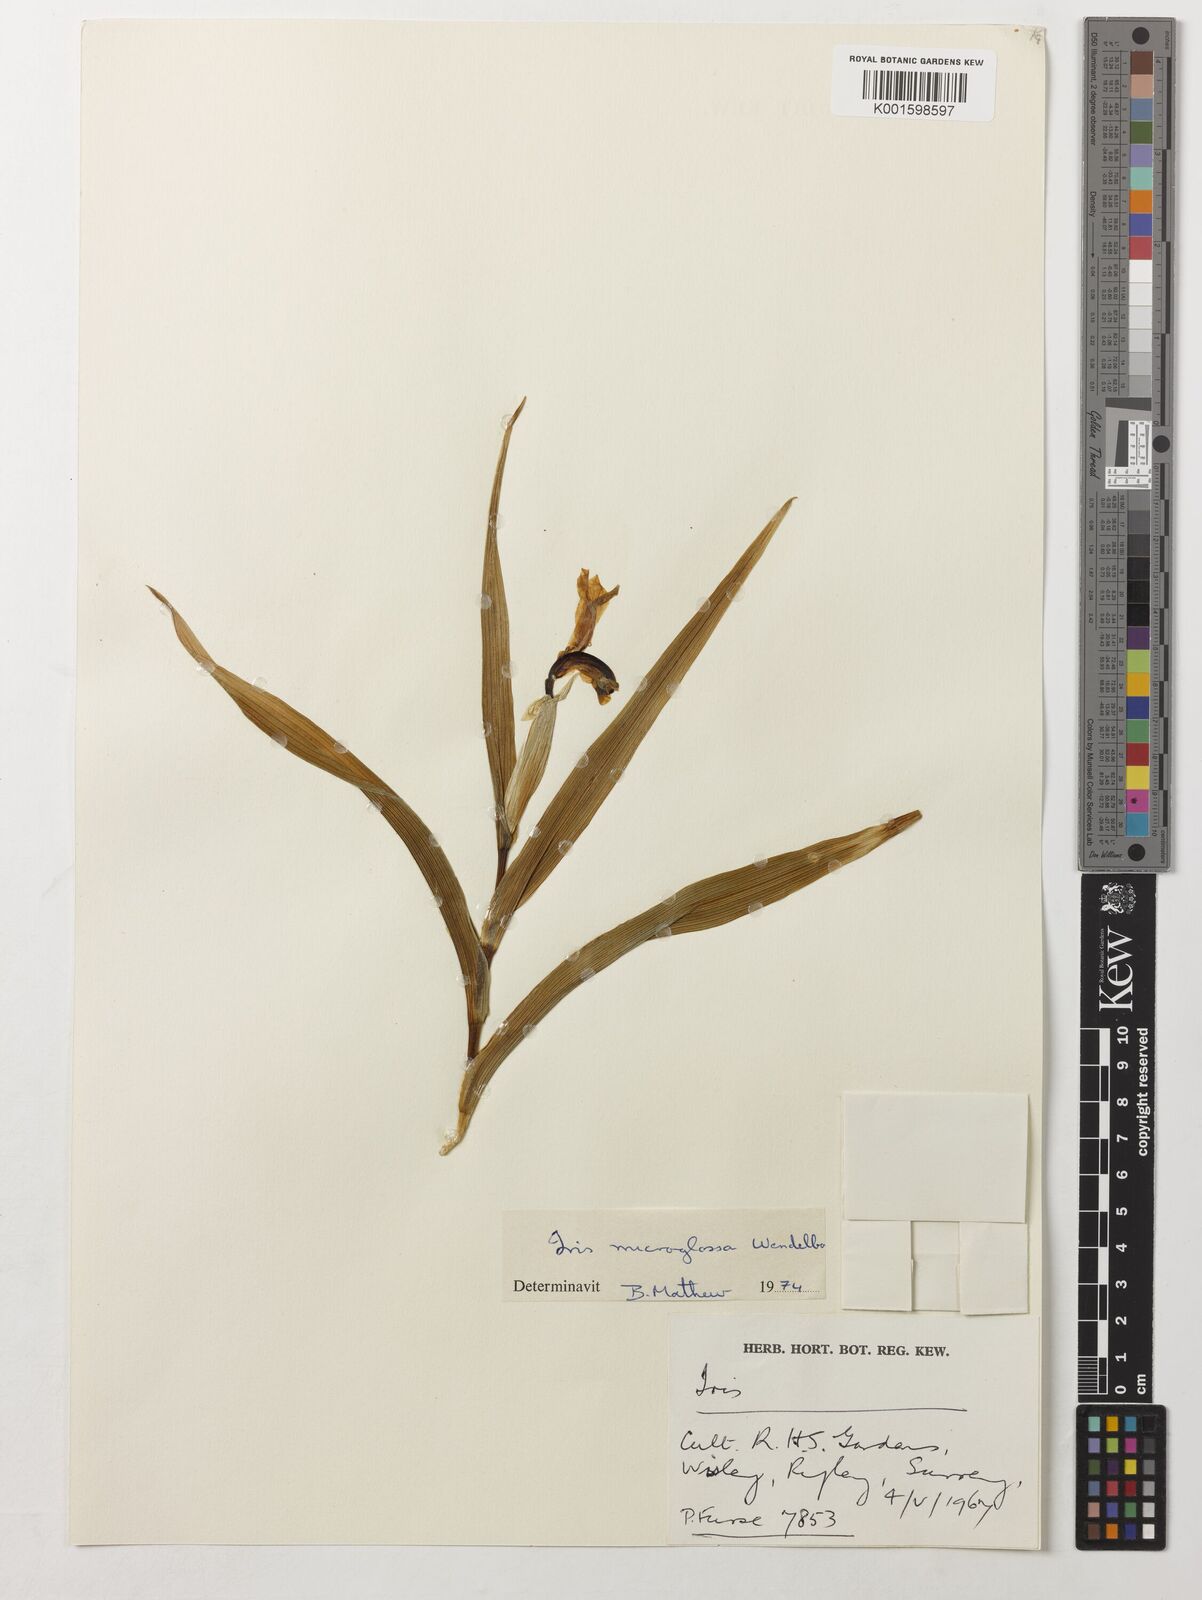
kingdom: Plantae
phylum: Tracheophyta
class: Liliopsida
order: Asparagales
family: Iridaceae
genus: Iris
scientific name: Iris microglossa
